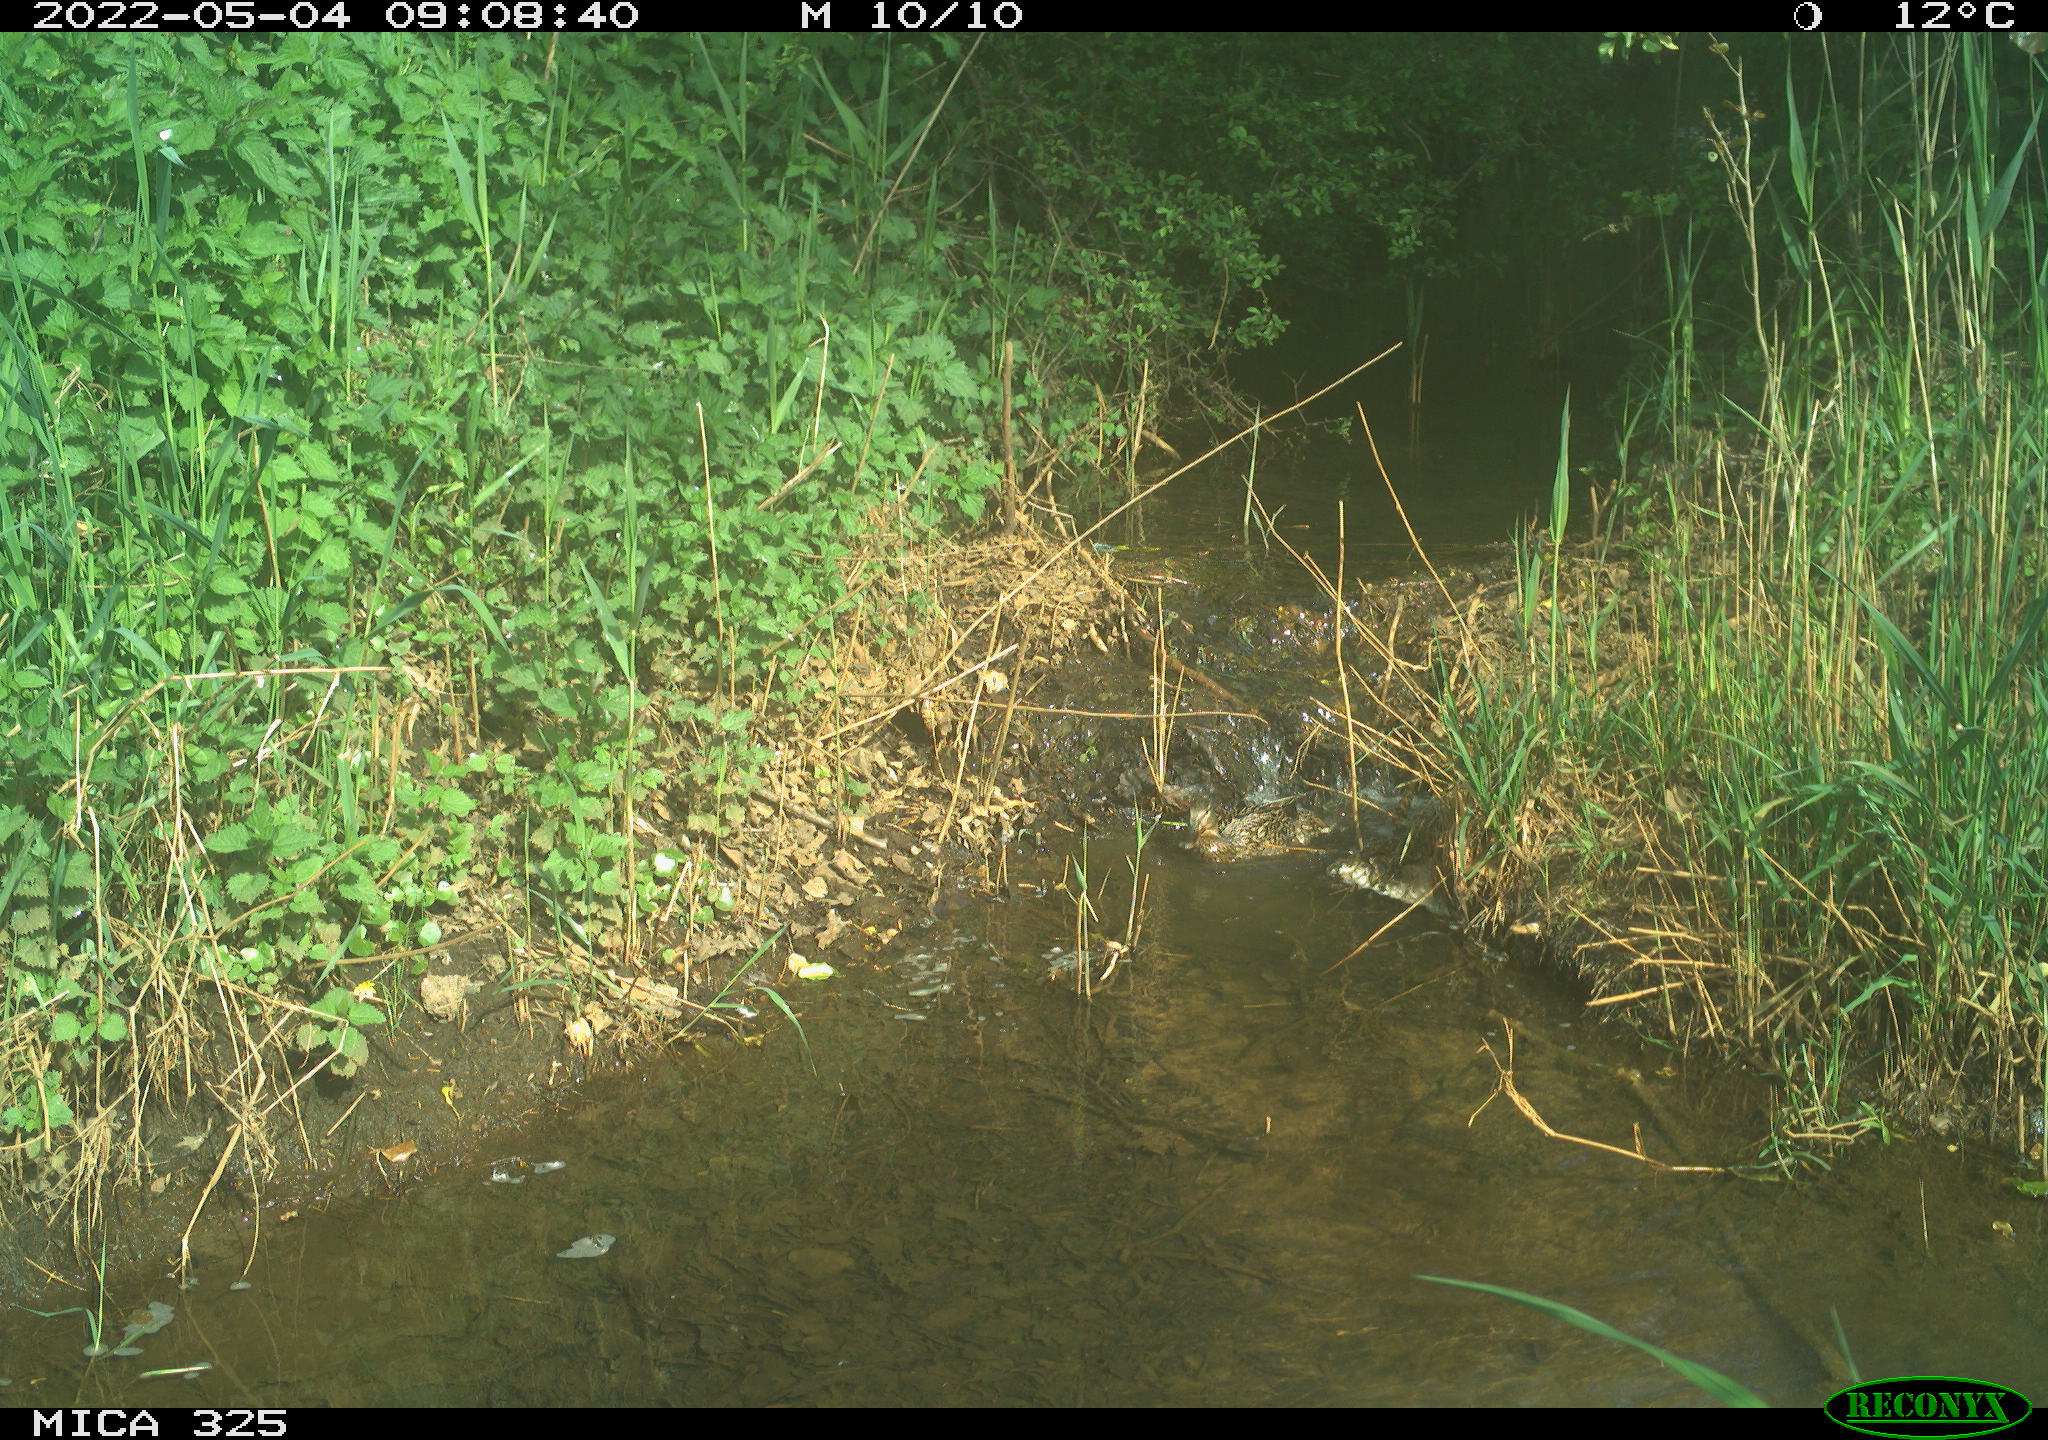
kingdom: Animalia
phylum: Chordata
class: Aves
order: Anseriformes
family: Anatidae
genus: Anas
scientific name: Anas platyrhynchos
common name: Mallard
